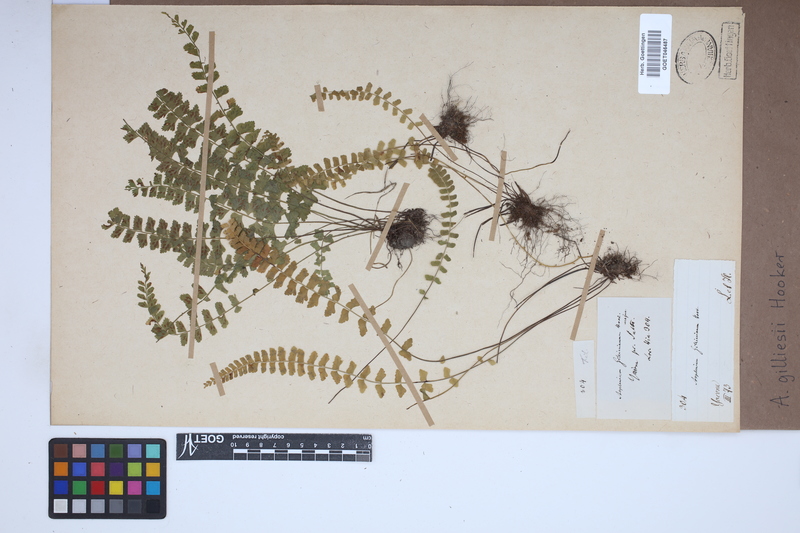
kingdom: Plantae
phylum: Tracheophyta
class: Polypodiopsida
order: Polypodiales
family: Aspleniaceae
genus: Asplenium
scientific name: Asplenium gilliesii
